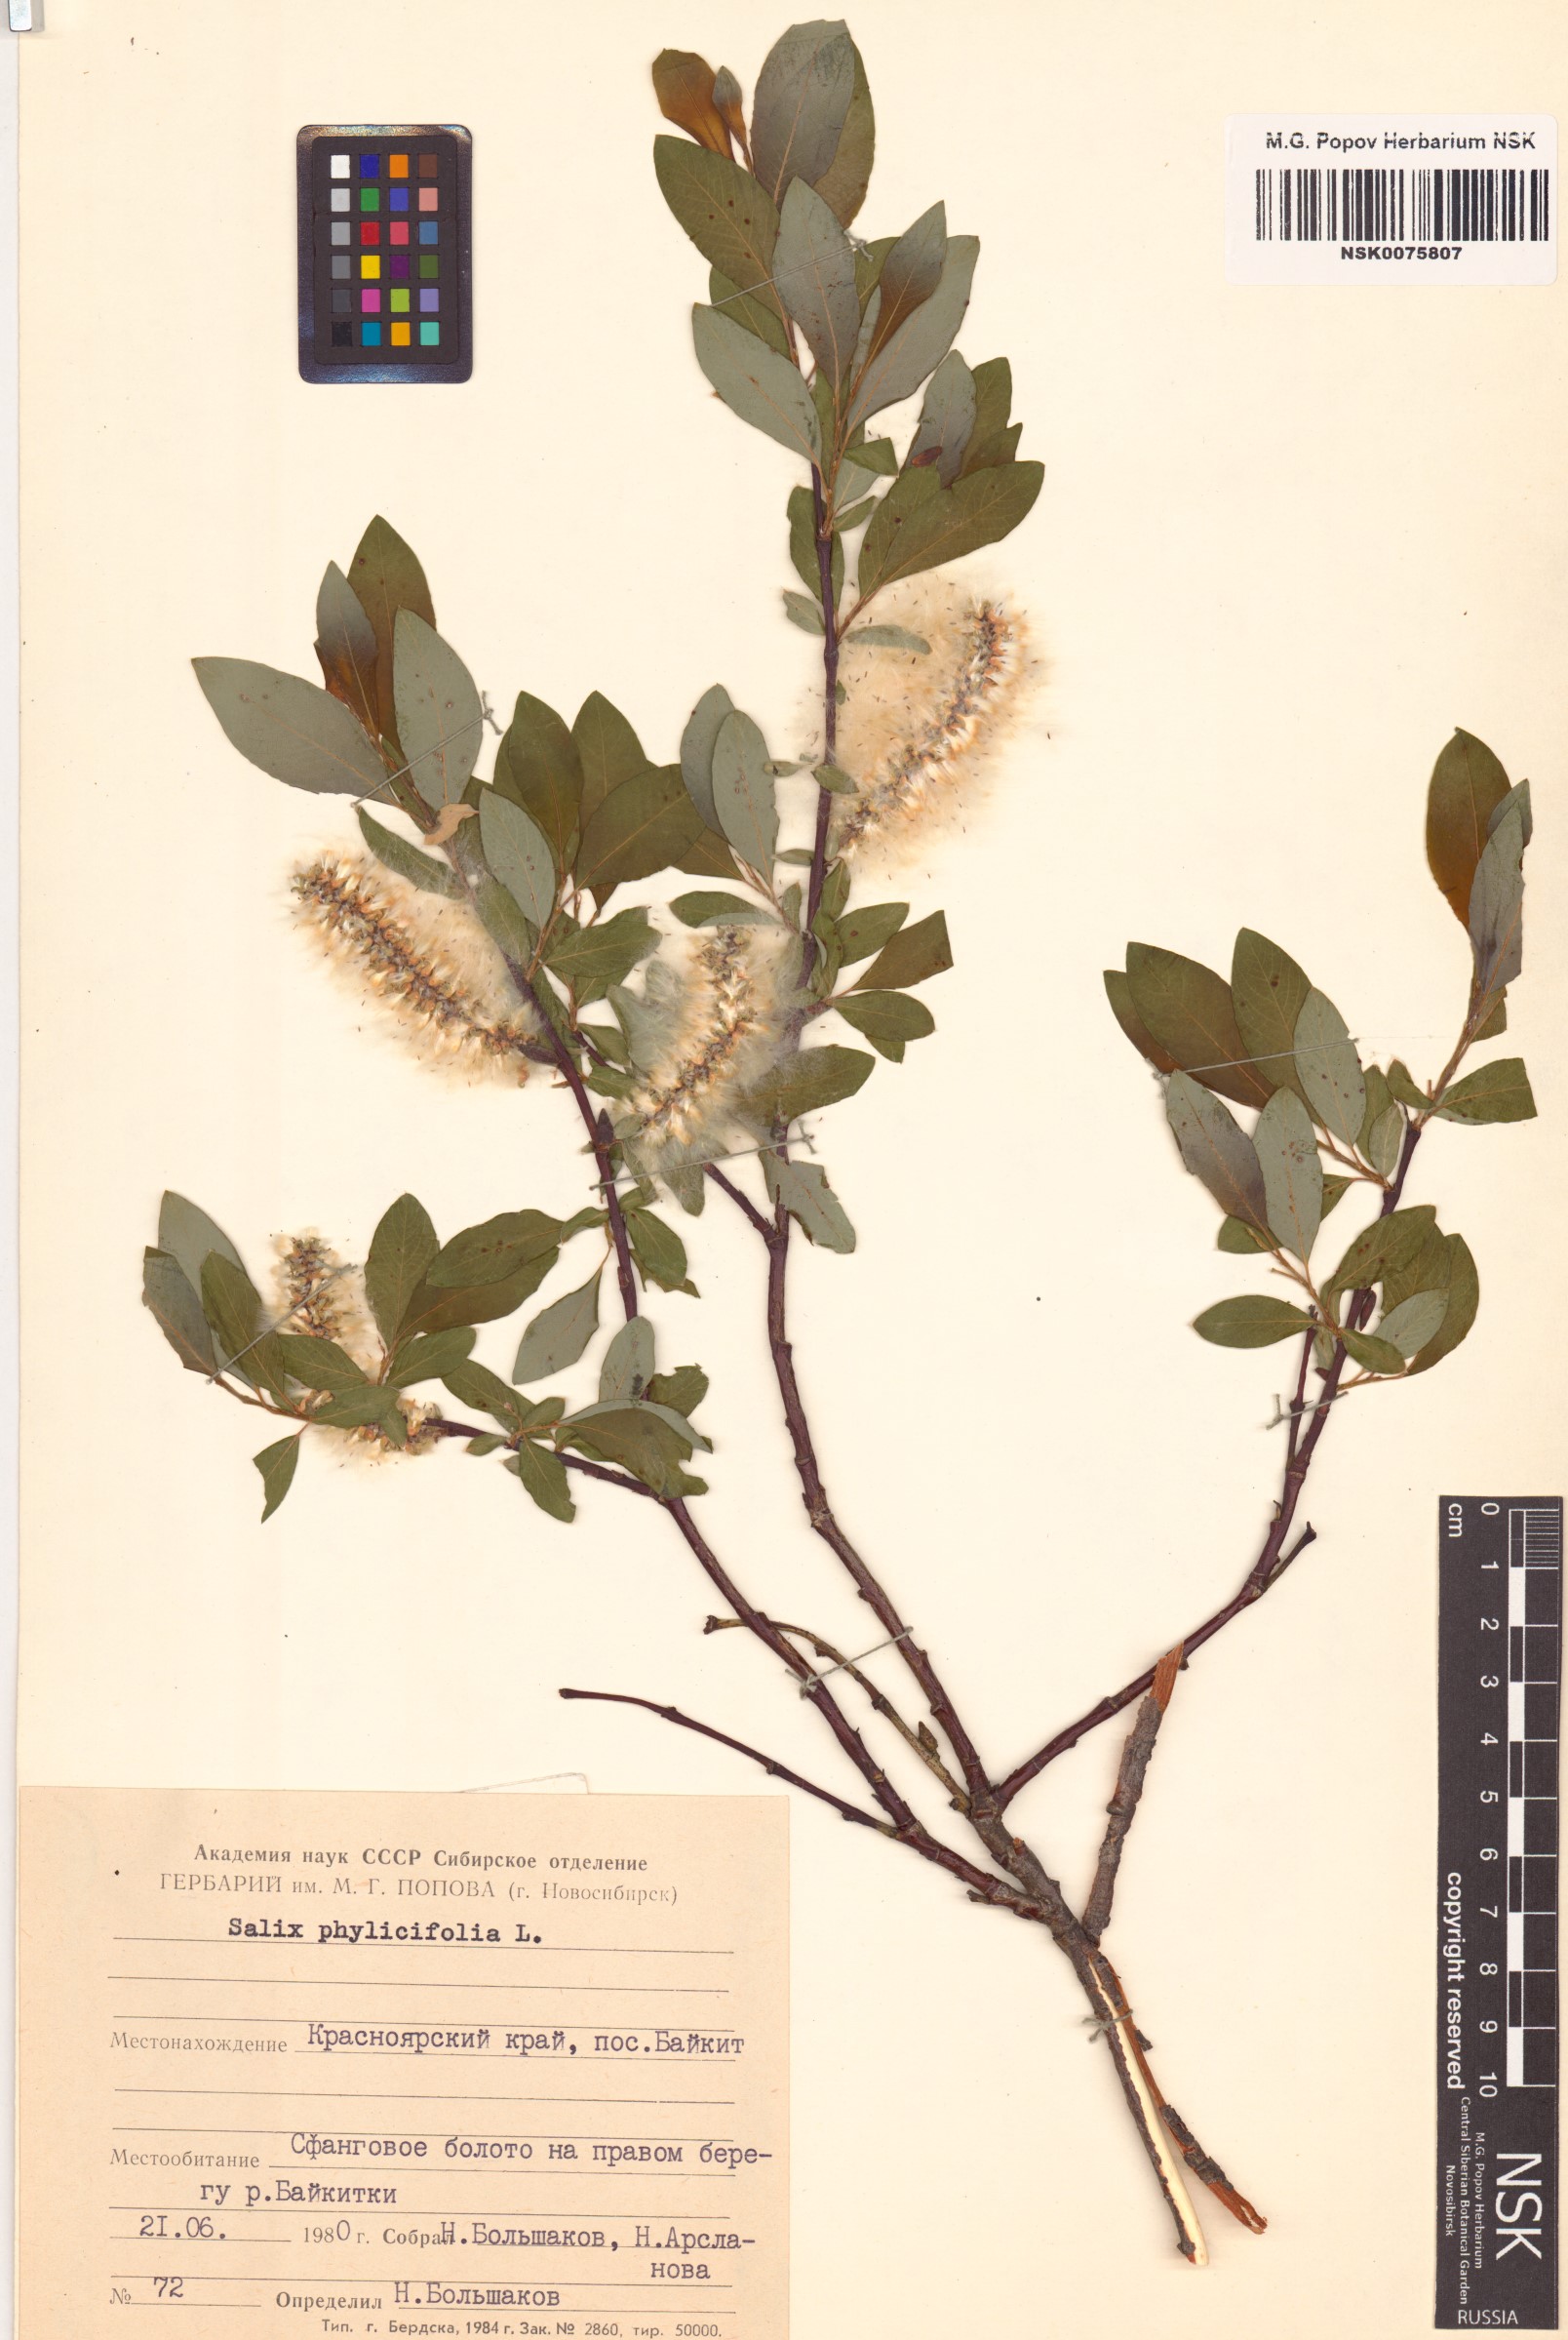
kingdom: Plantae
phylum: Tracheophyta
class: Magnoliopsida
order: Malpighiales
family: Salicaceae
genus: Salix
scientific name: Salix phylicifolia
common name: Tea-leaved willow
